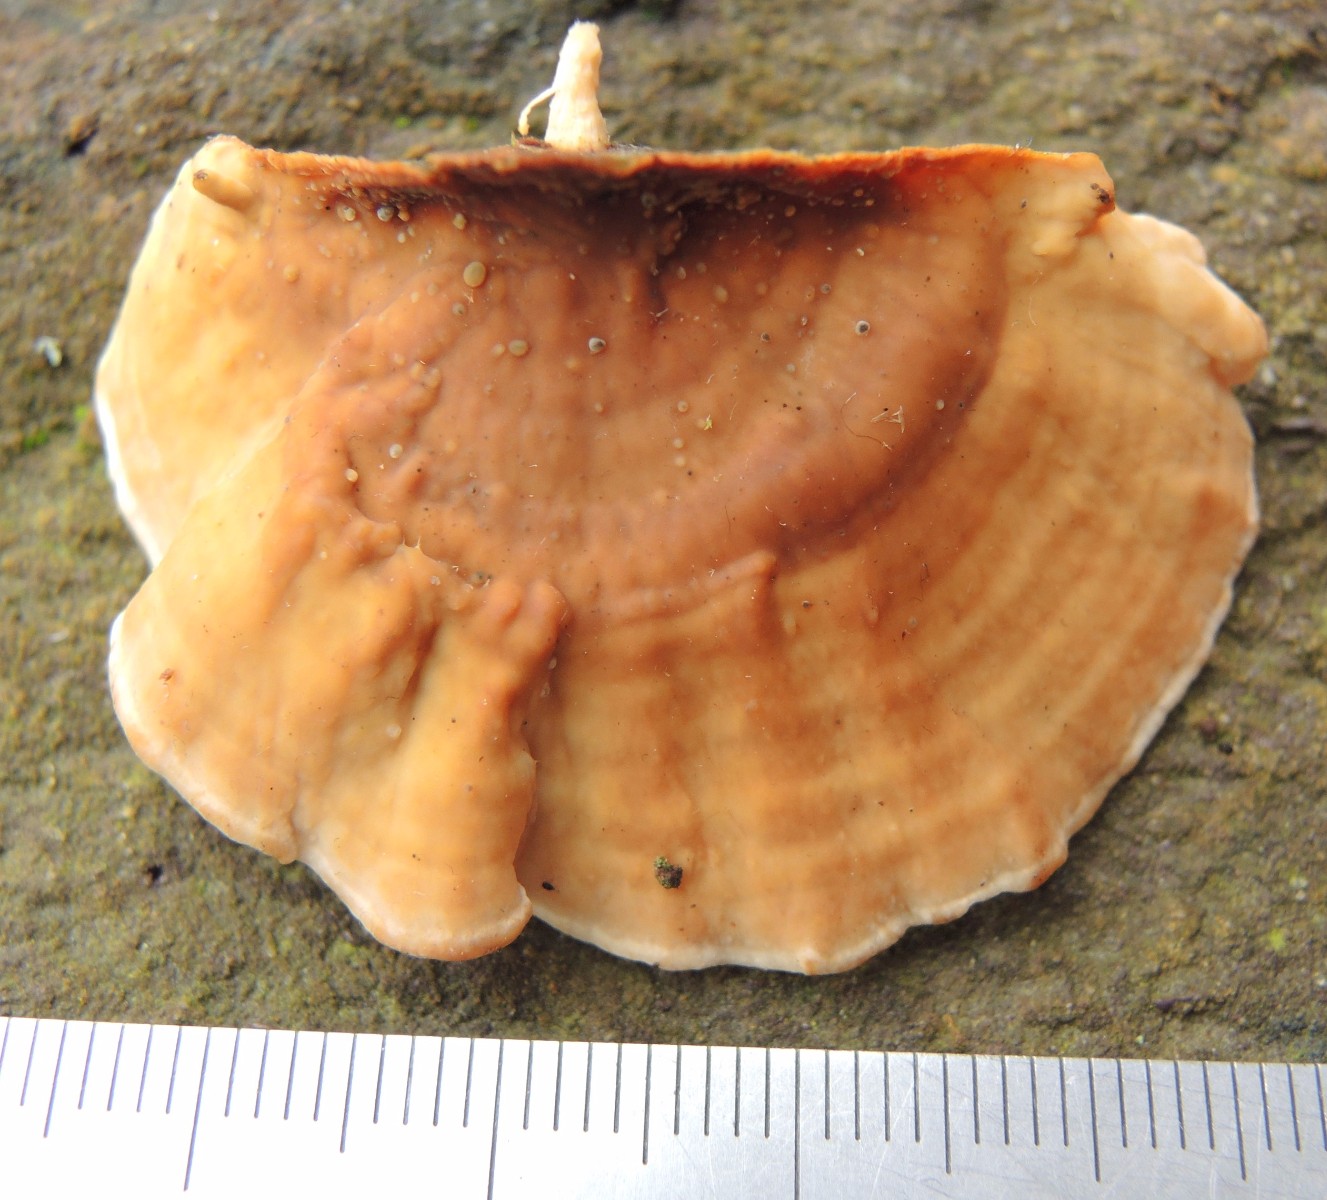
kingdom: Fungi
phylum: Basidiomycota
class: Agaricomycetes
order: Russulales
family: Stereaceae
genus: Stereum
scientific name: Stereum subtomentosum
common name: smuk lædersvamp
